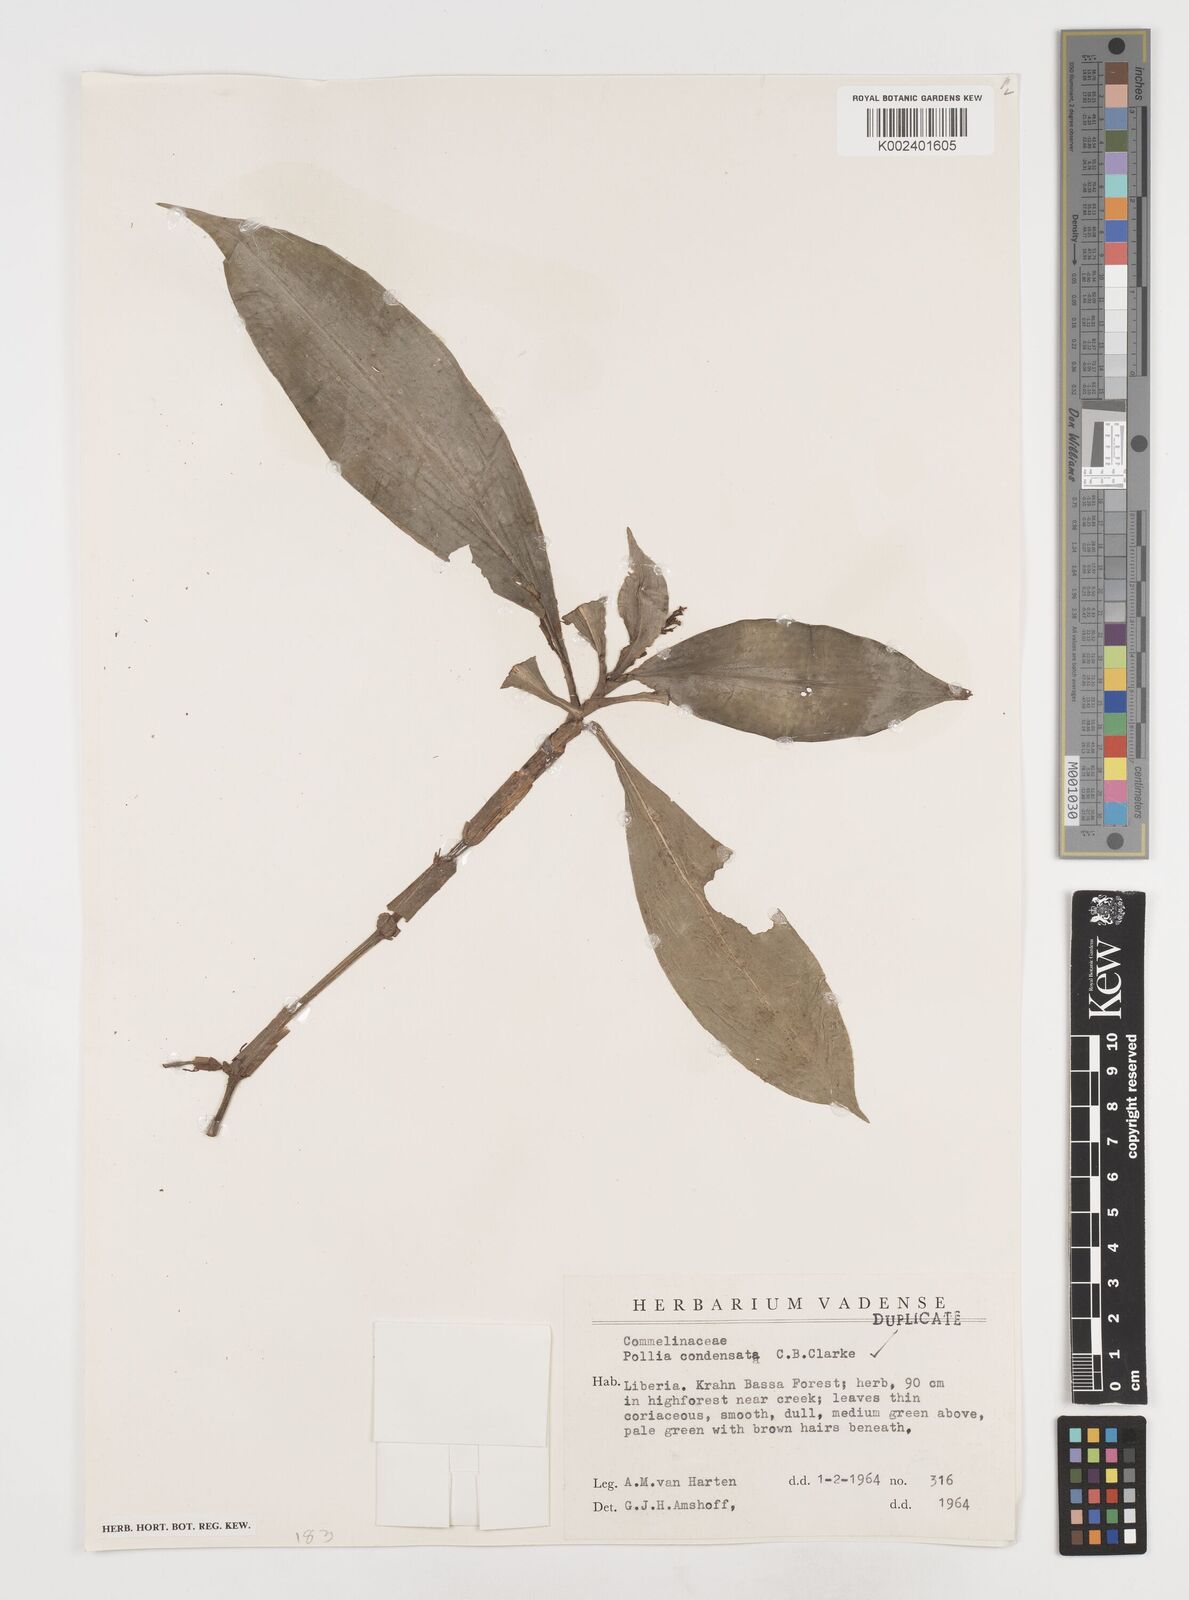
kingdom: Plantae
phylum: Tracheophyta
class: Liliopsida
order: Commelinales
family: Commelinaceae
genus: Pollia
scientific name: Pollia condensata
